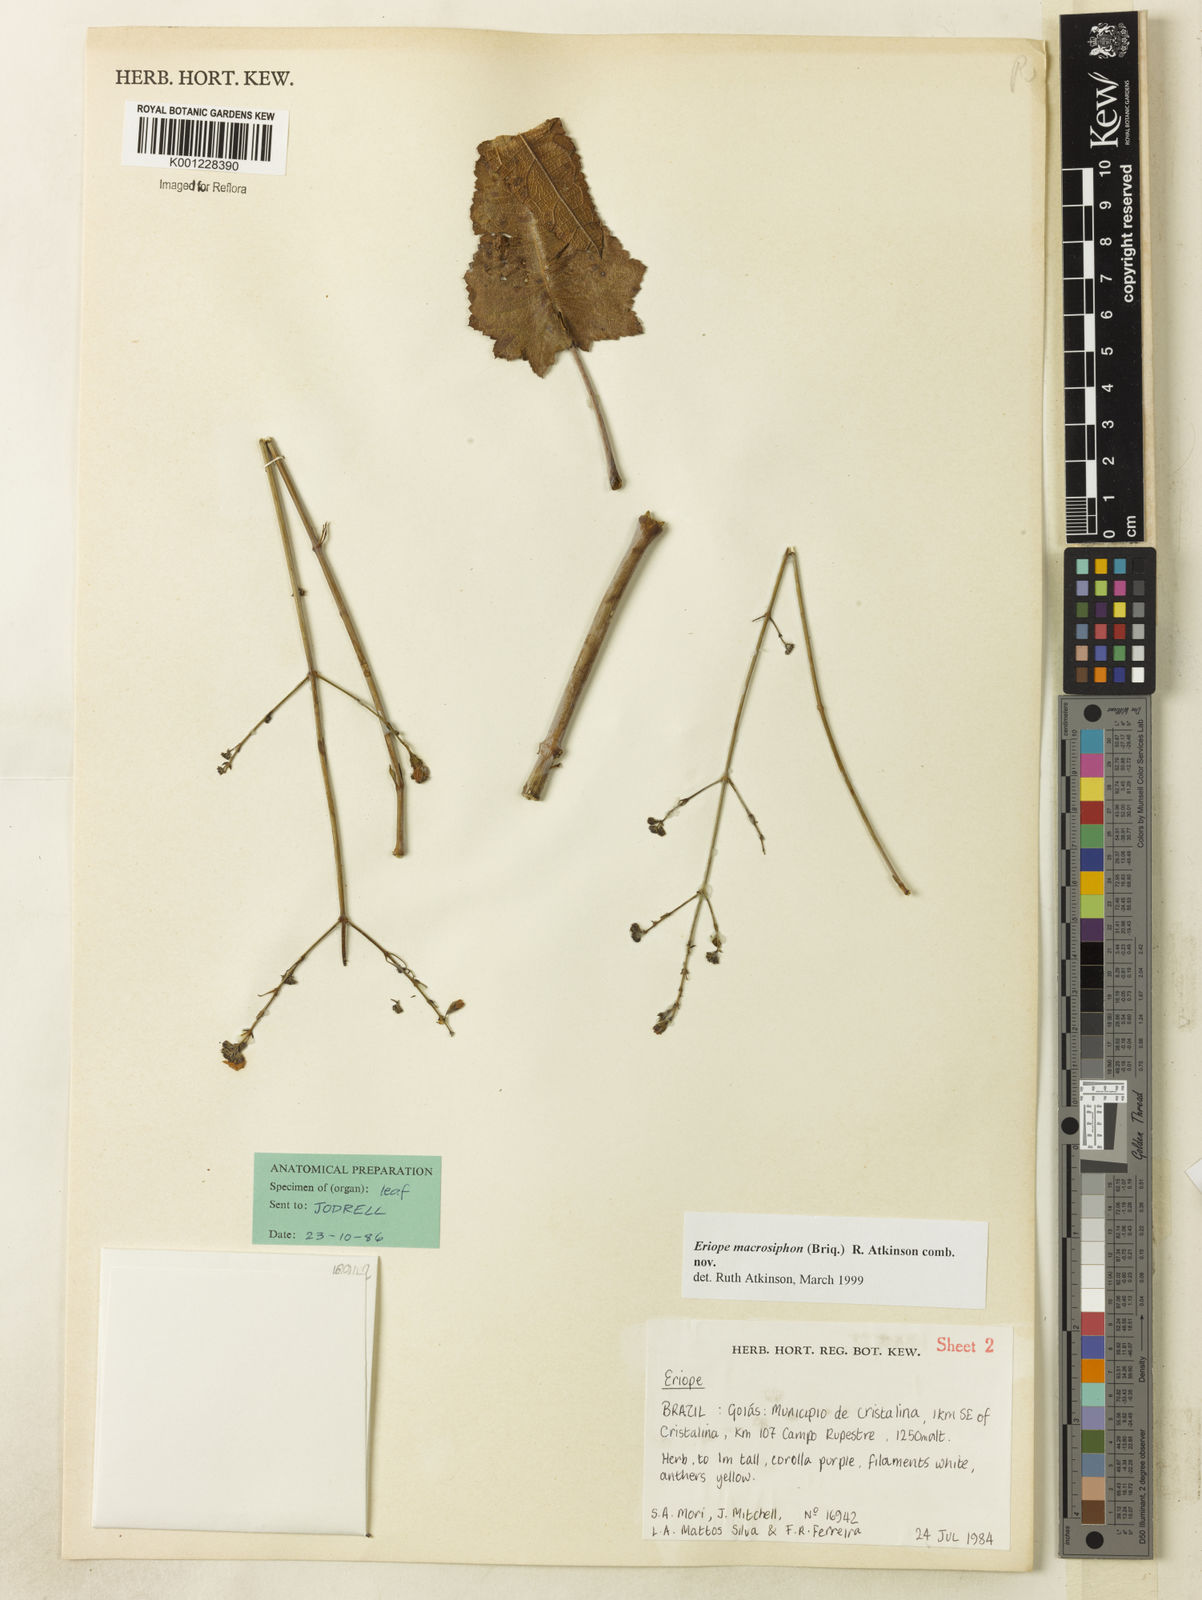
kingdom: Plantae
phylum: Tracheophyta
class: Magnoliopsida
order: Lamiales
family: Lamiaceae
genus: Hypenia
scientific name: Hypenia macrosiphon
